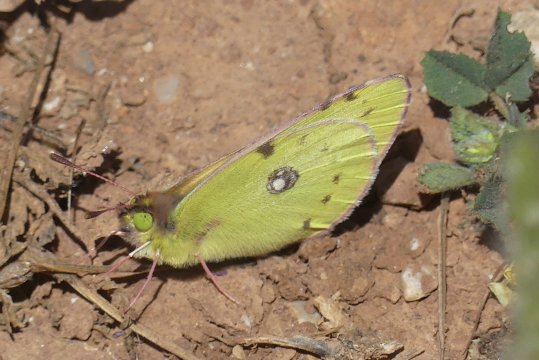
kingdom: Animalia
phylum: Arthropoda
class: Insecta
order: Lepidoptera
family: Pieridae
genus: Colias
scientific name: Colias croceus
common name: Clouded Yellow
